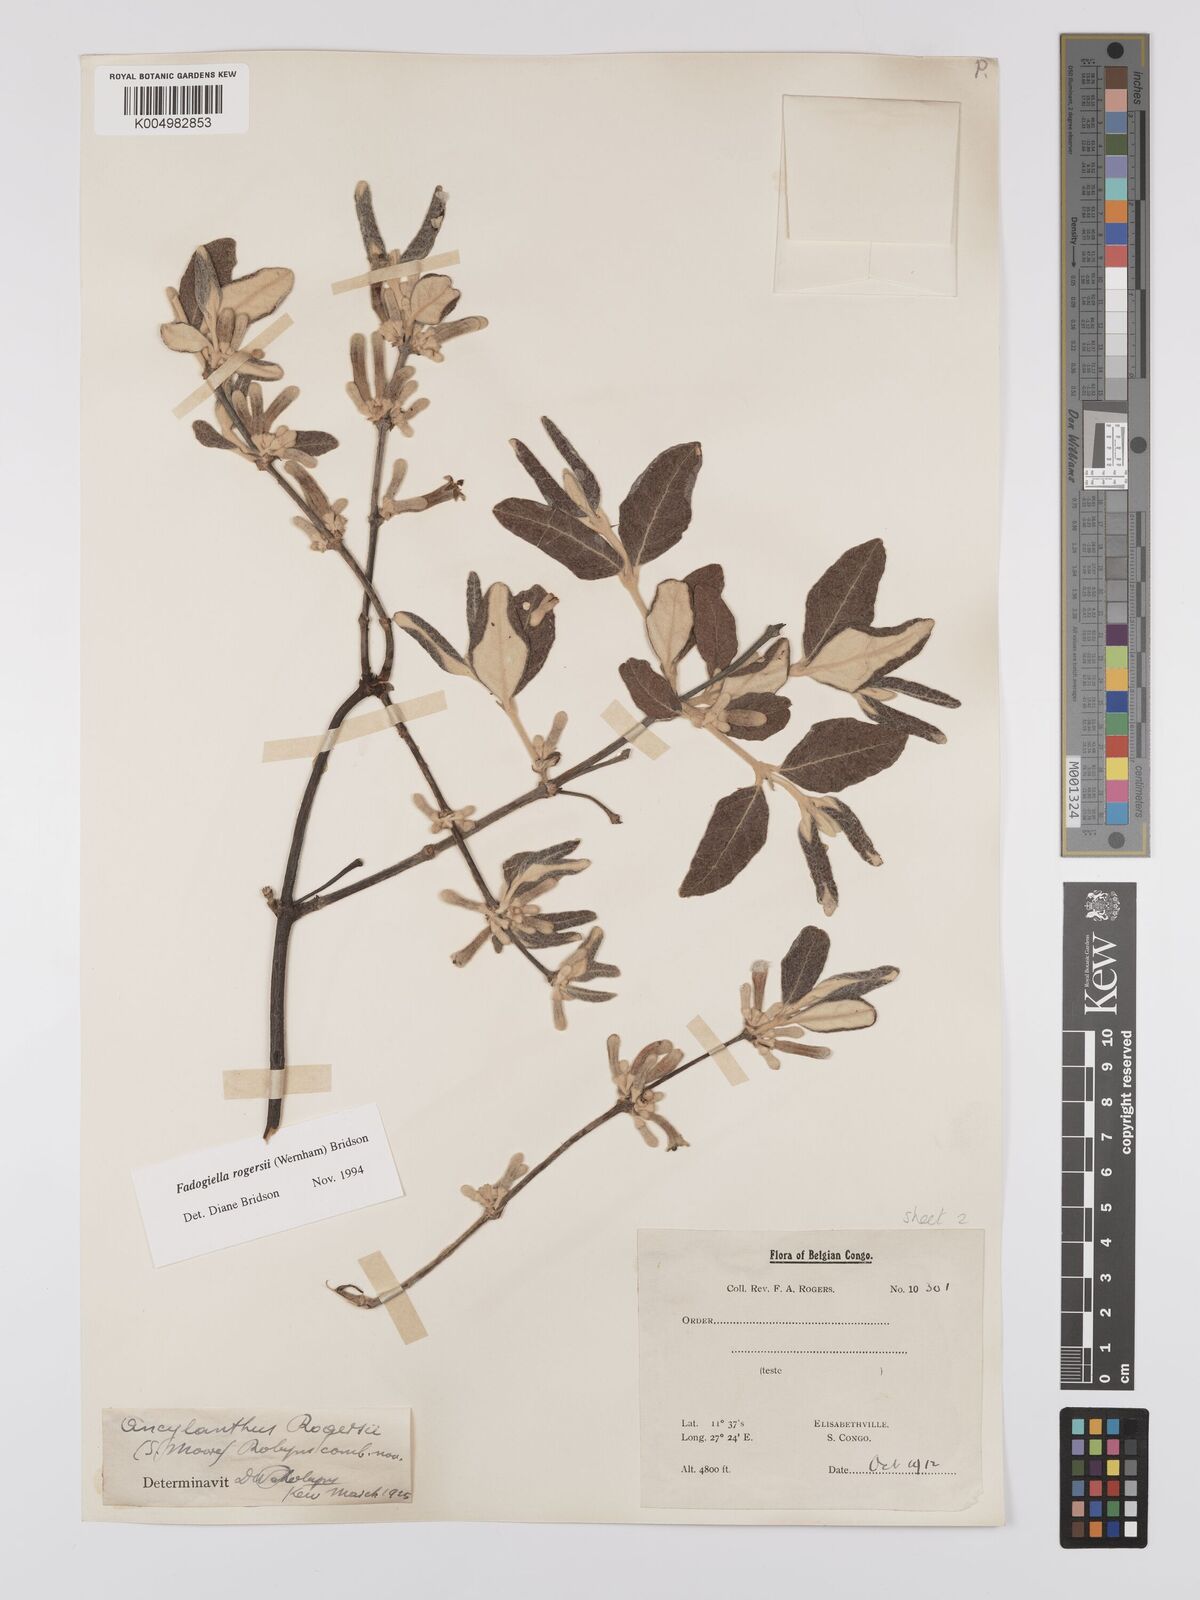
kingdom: Plantae
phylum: Tracheophyta
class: Magnoliopsida
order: Gentianales
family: Rubiaceae
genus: Fadogiella
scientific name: Fadogiella rogersii
